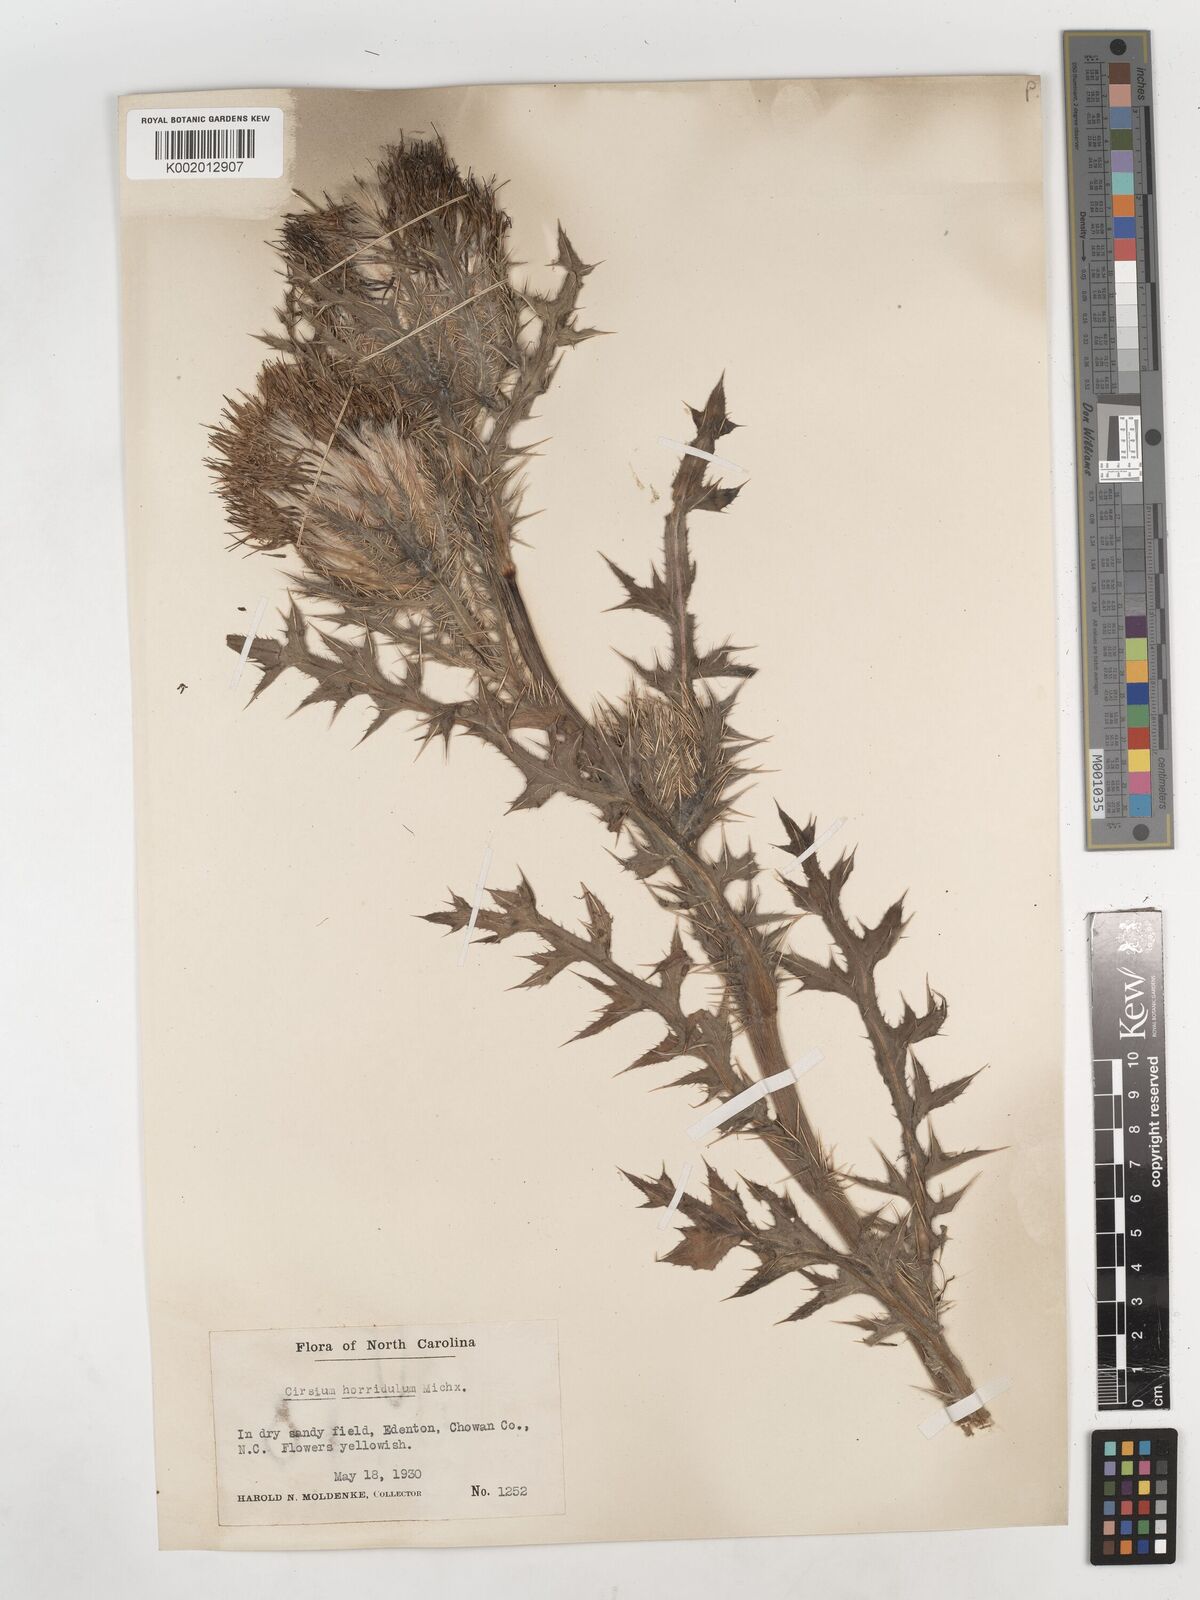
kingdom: Plantae
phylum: Tracheophyta
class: Magnoliopsida
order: Asterales
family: Asteraceae
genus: Cirsium
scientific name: Cirsium horridulum
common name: Bristly thistle
